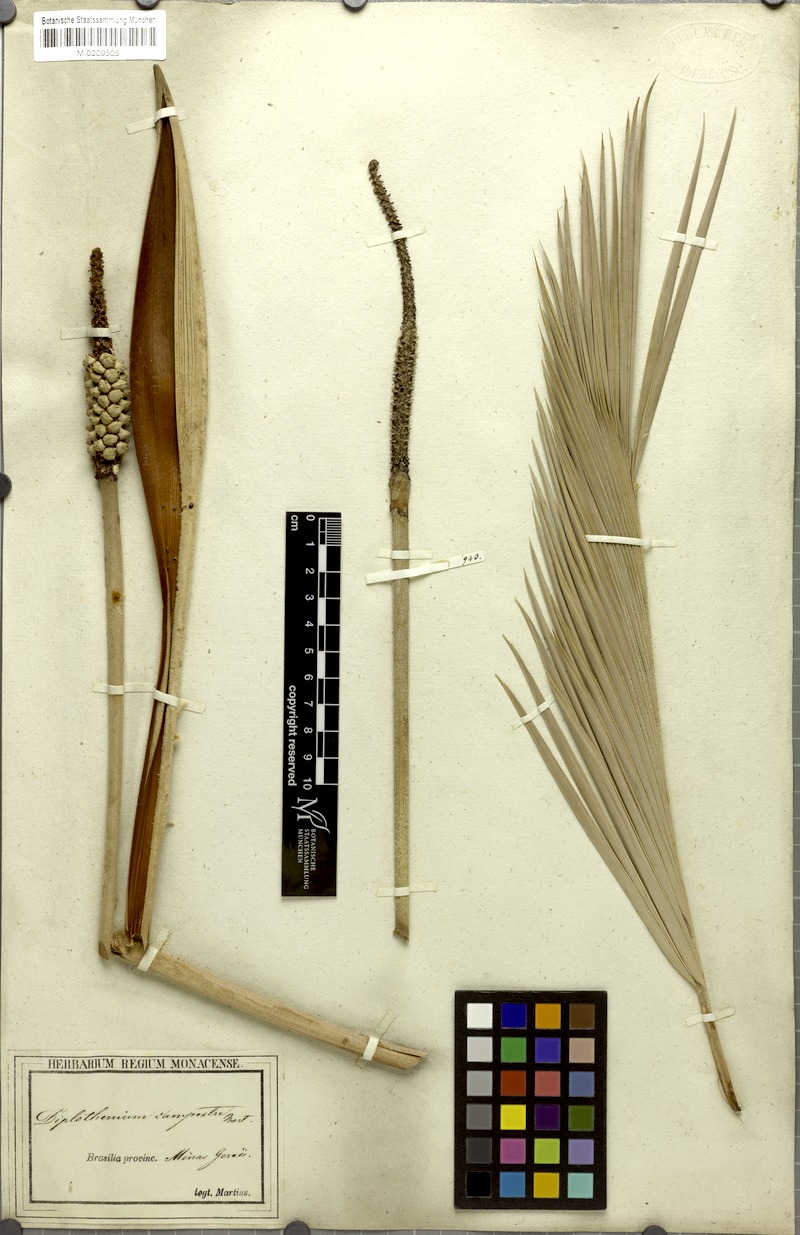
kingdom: Plantae
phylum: Tracheophyta
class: Liliopsida
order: Arecales
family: Arecaceae
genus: Allagoptera
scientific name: Allagoptera campestris
